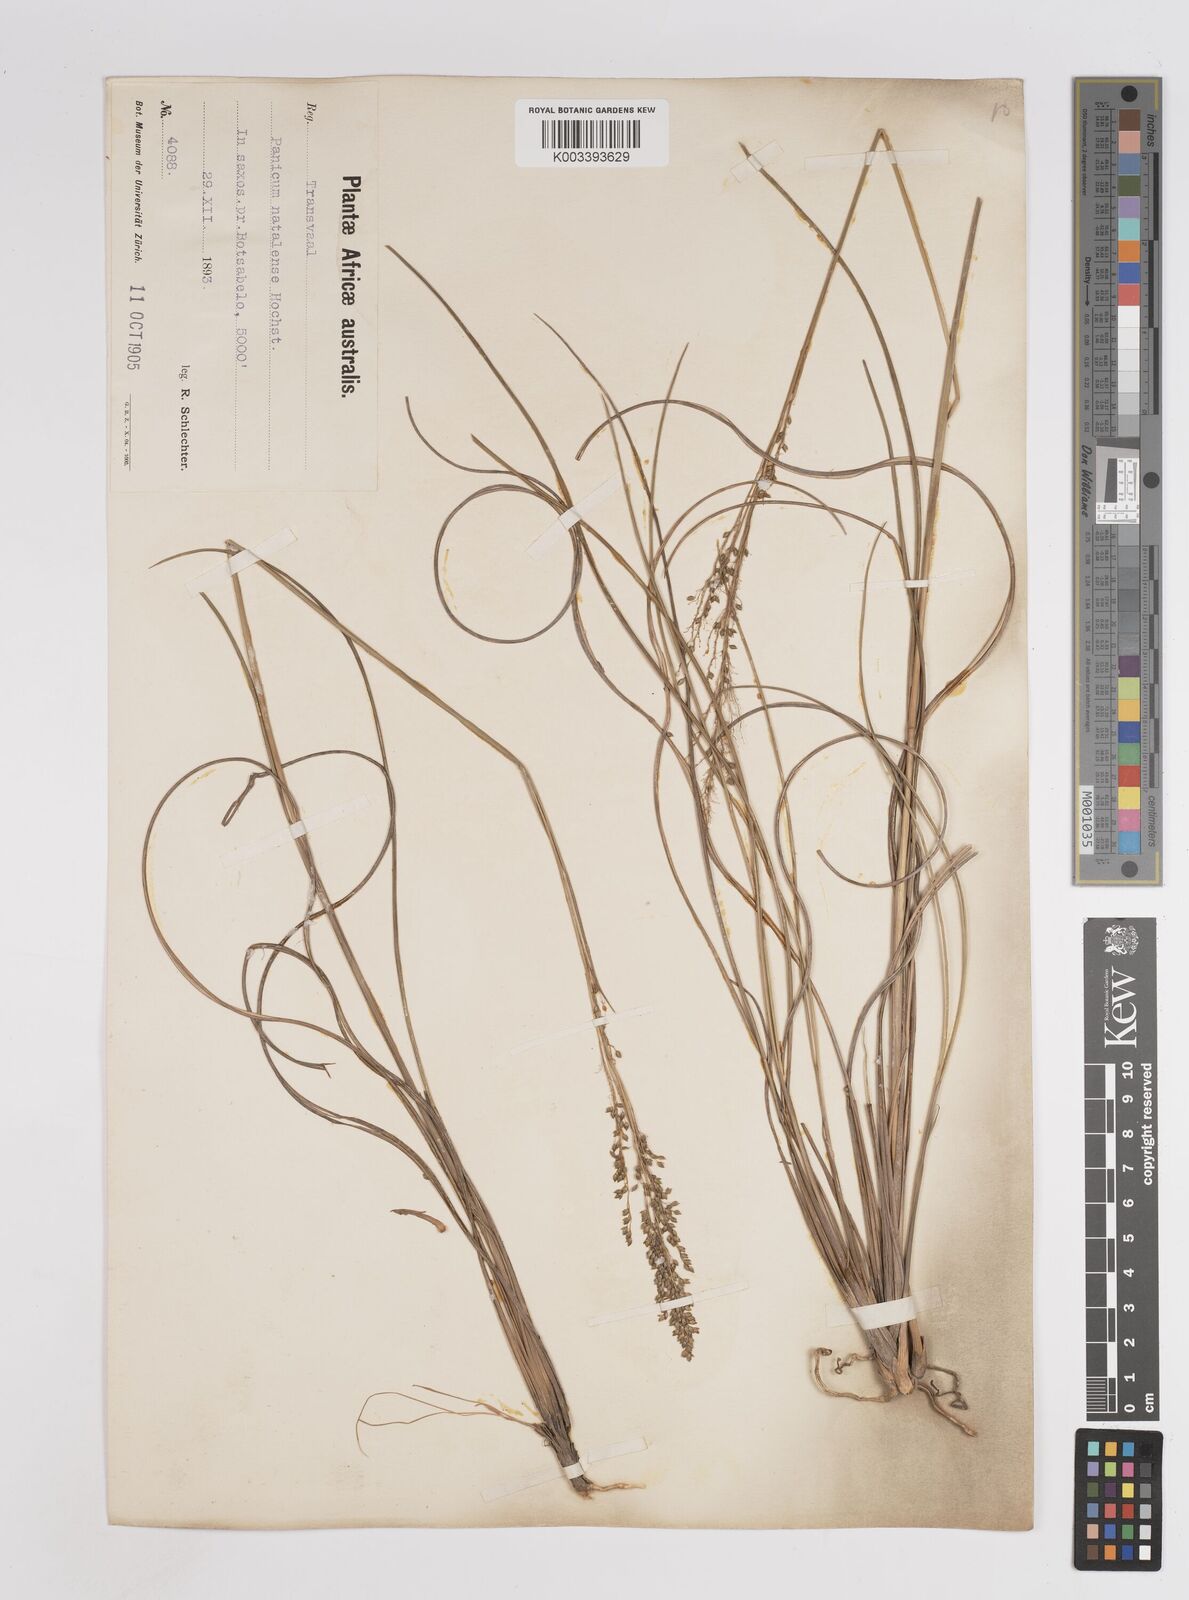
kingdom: Plantae
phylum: Tracheophyta
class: Liliopsida
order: Poales
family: Poaceae
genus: Trichanthecium
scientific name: Trichanthecium natalense
